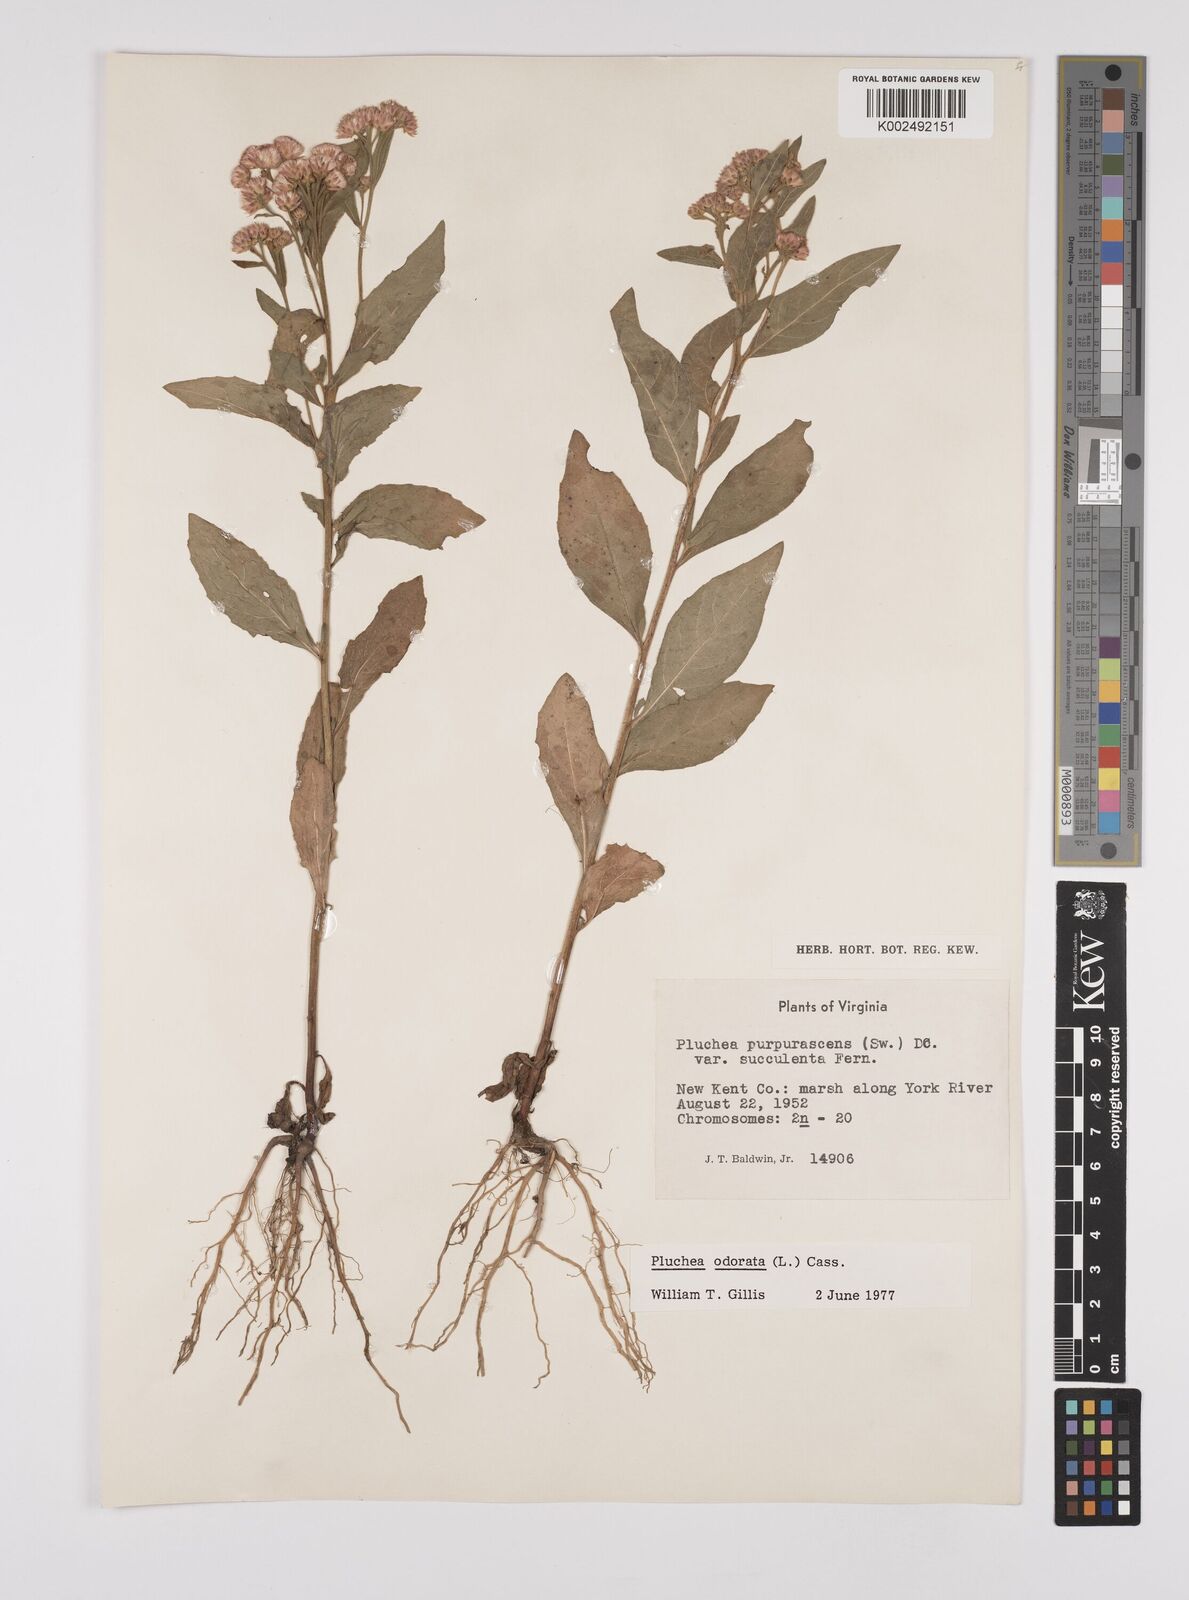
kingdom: Plantae
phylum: Tracheophyta
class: Magnoliopsida
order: Asterales
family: Asteraceae
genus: Pluchea
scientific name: Pluchea odorata
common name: Saltmarsh fleabane
